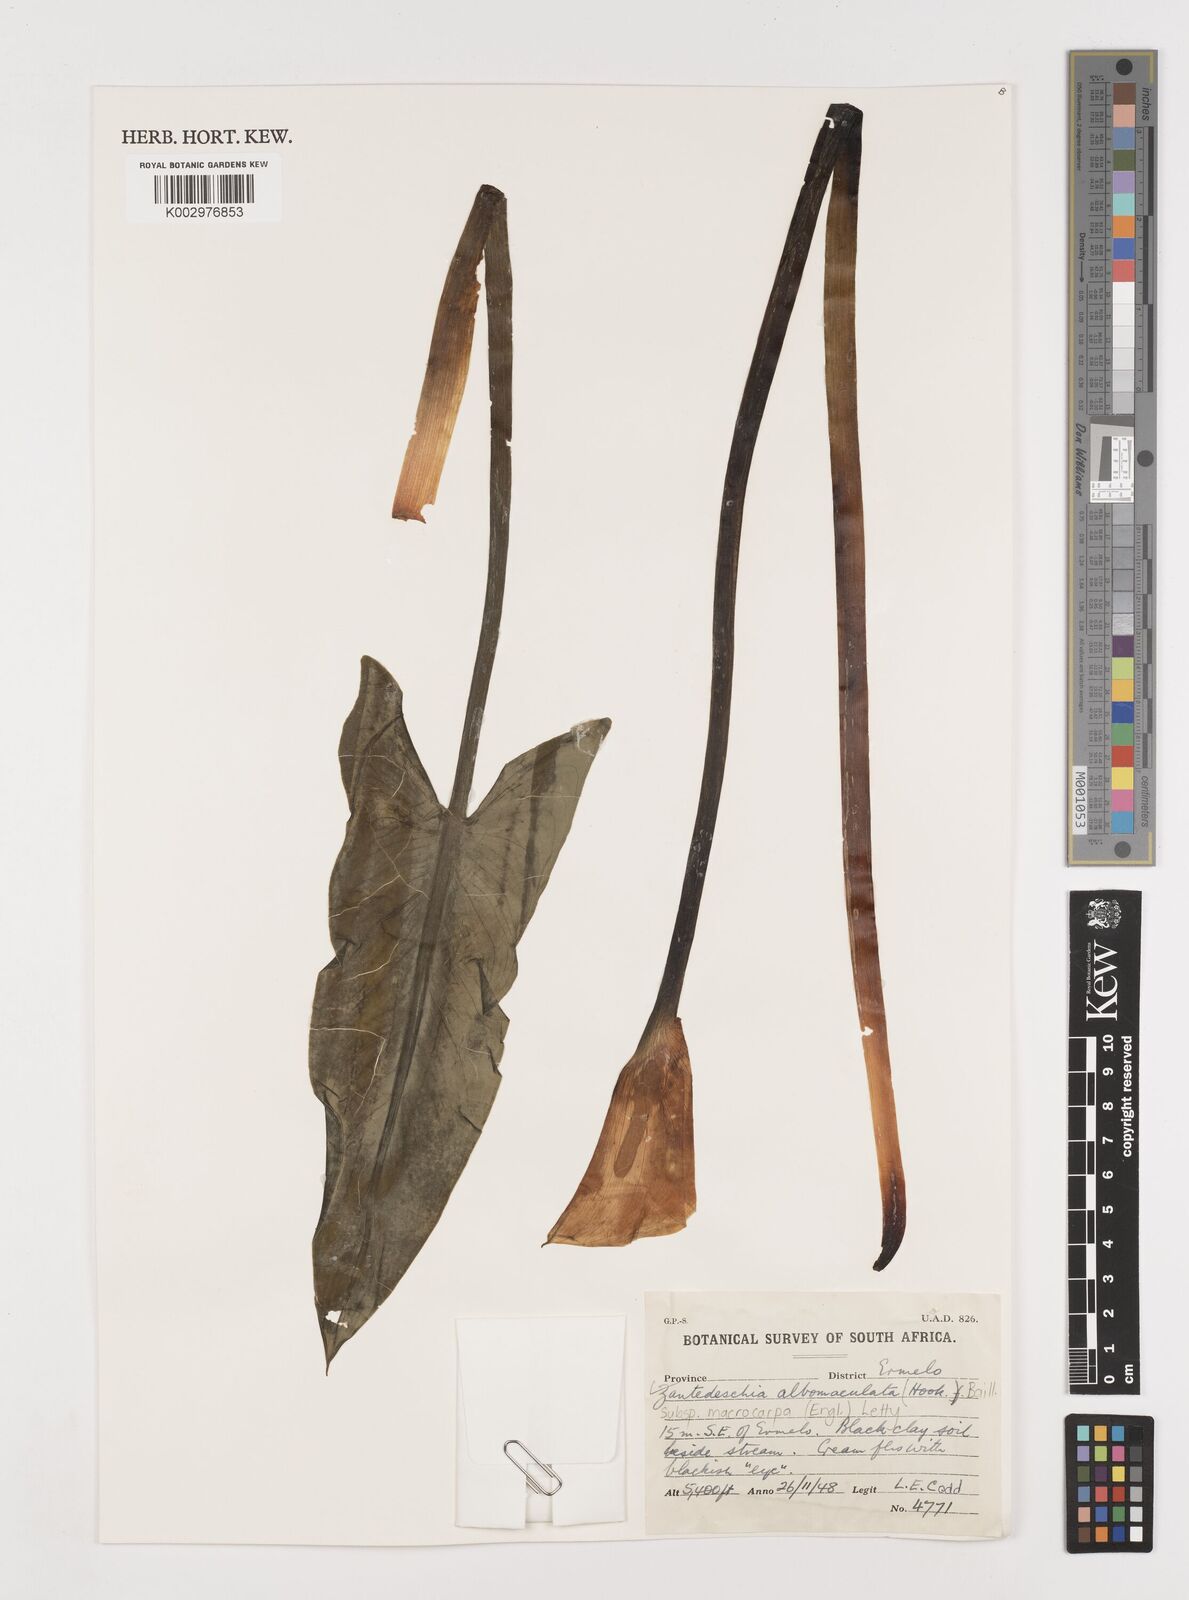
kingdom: Plantae
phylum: Tracheophyta
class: Liliopsida
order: Alismatales
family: Araceae
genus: Zantedeschia
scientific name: Zantedeschia albomaculata
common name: Spotted calla lily
